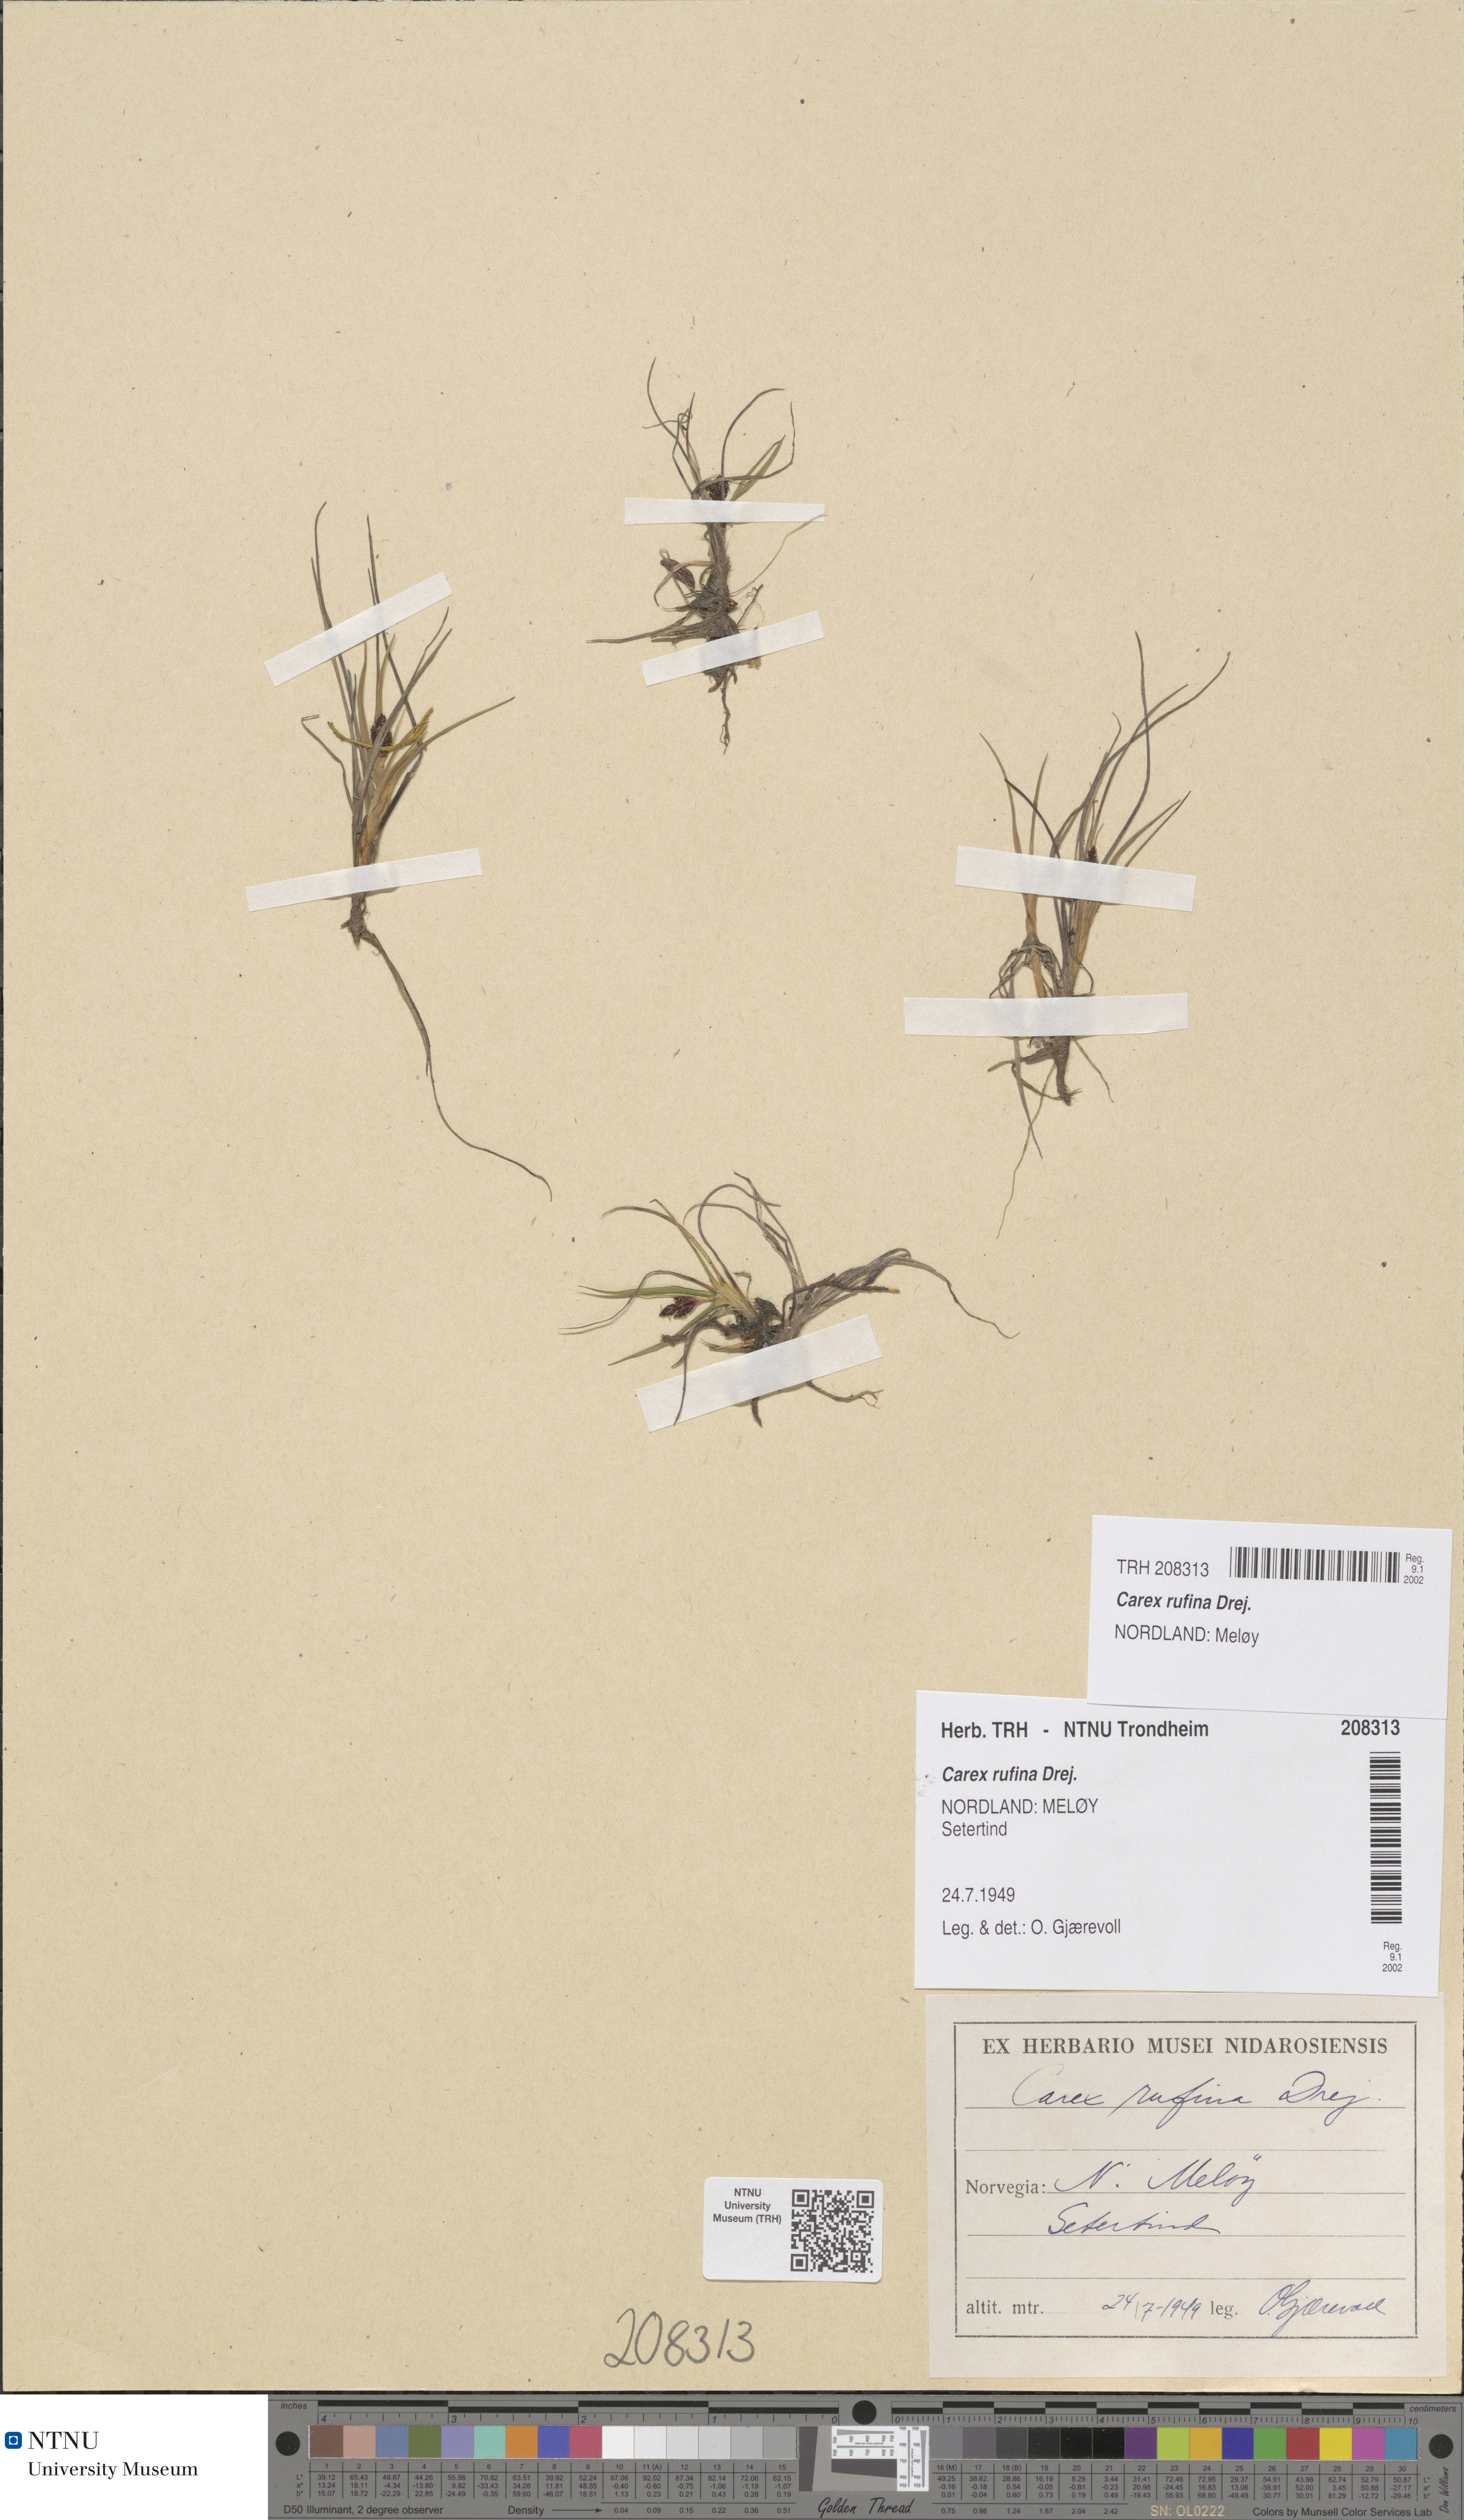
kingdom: Plantae
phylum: Tracheophyta
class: Liliopsida
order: Poales
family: Cyperaceae
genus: Carex
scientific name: Carex rufina
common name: Reddish sedge
